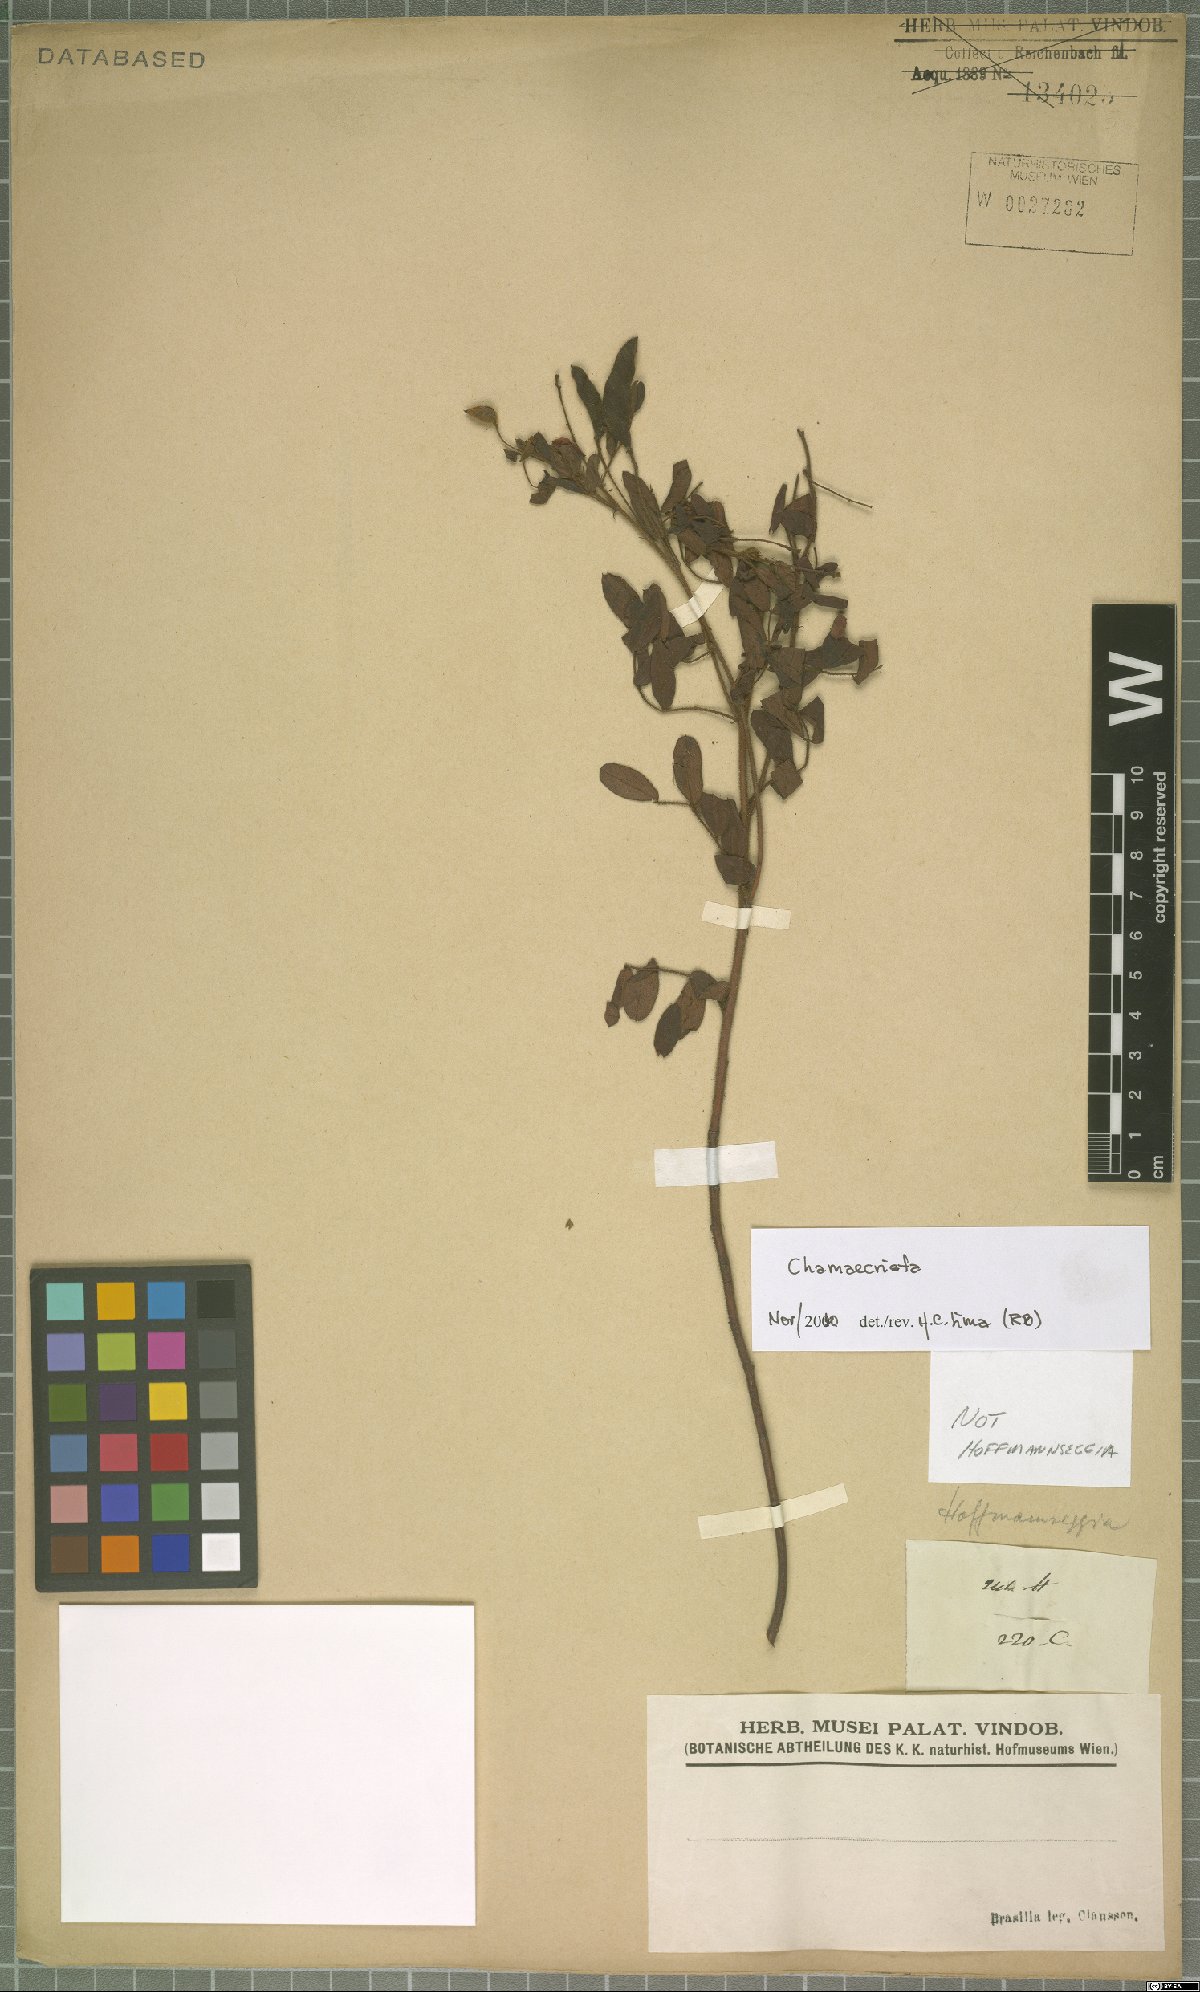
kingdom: Plantae
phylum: Tracheophyta
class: Magnoliopsida
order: Fabales
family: Fabaceae
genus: Chamaecrista
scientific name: Chamaecrista
